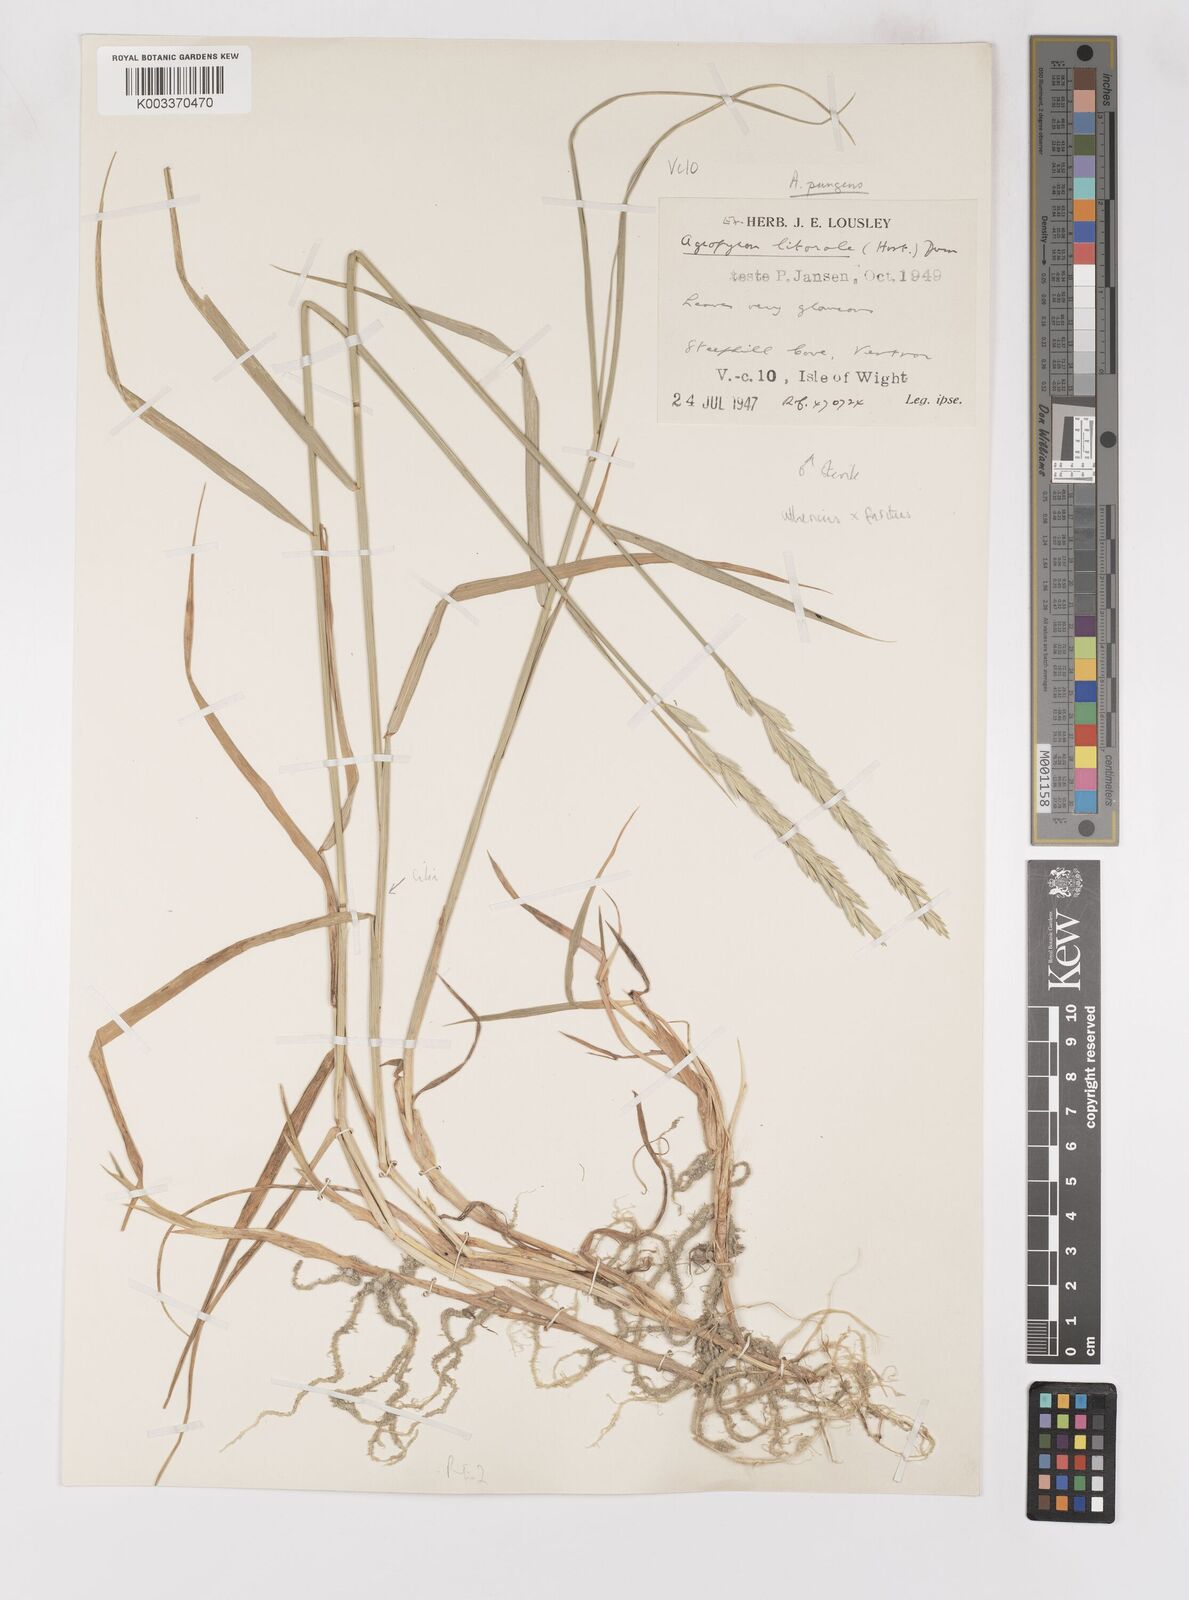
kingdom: Plantae
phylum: Tracheophyta
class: Liliopsida
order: Poales
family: Poaceae
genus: Thinoelymus
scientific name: Thinoelymus obtusiusculus
